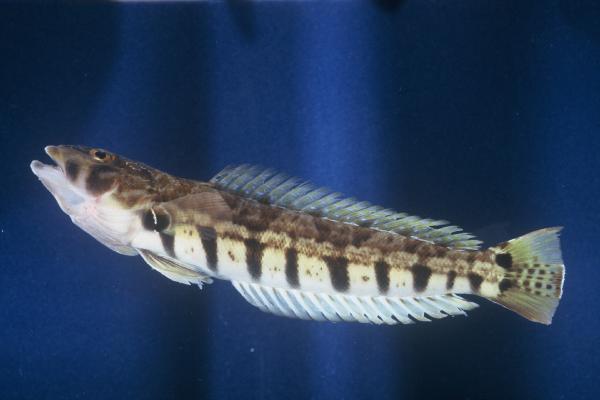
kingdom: Animalia
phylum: Chordata
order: Perciformes
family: Pinguipedidae
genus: Parapercis
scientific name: Parapercis robinsoni
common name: Smallscale sandsmelt
